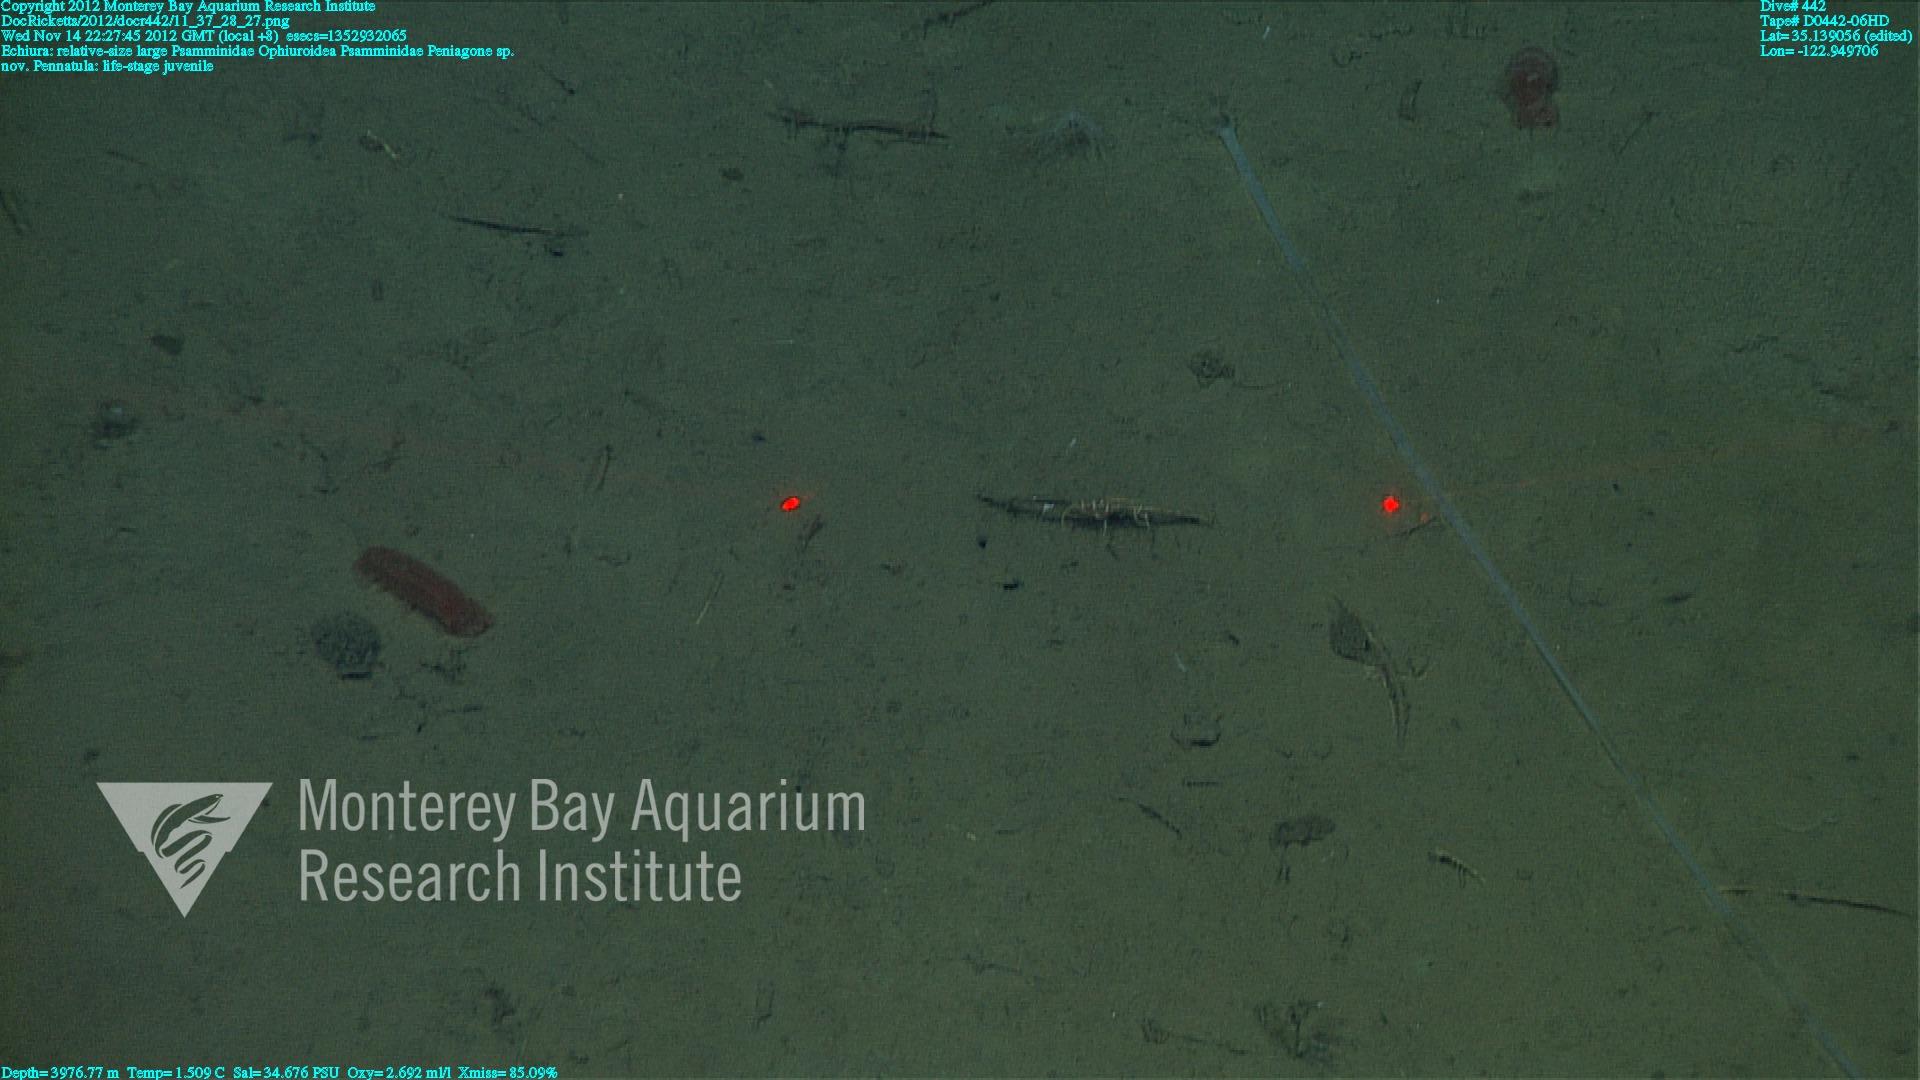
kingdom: Animalia
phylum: Cnidaria
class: Anthozoa
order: Scleralcyonacea
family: Pennatulidae
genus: Pennatula
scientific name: Pennatula
